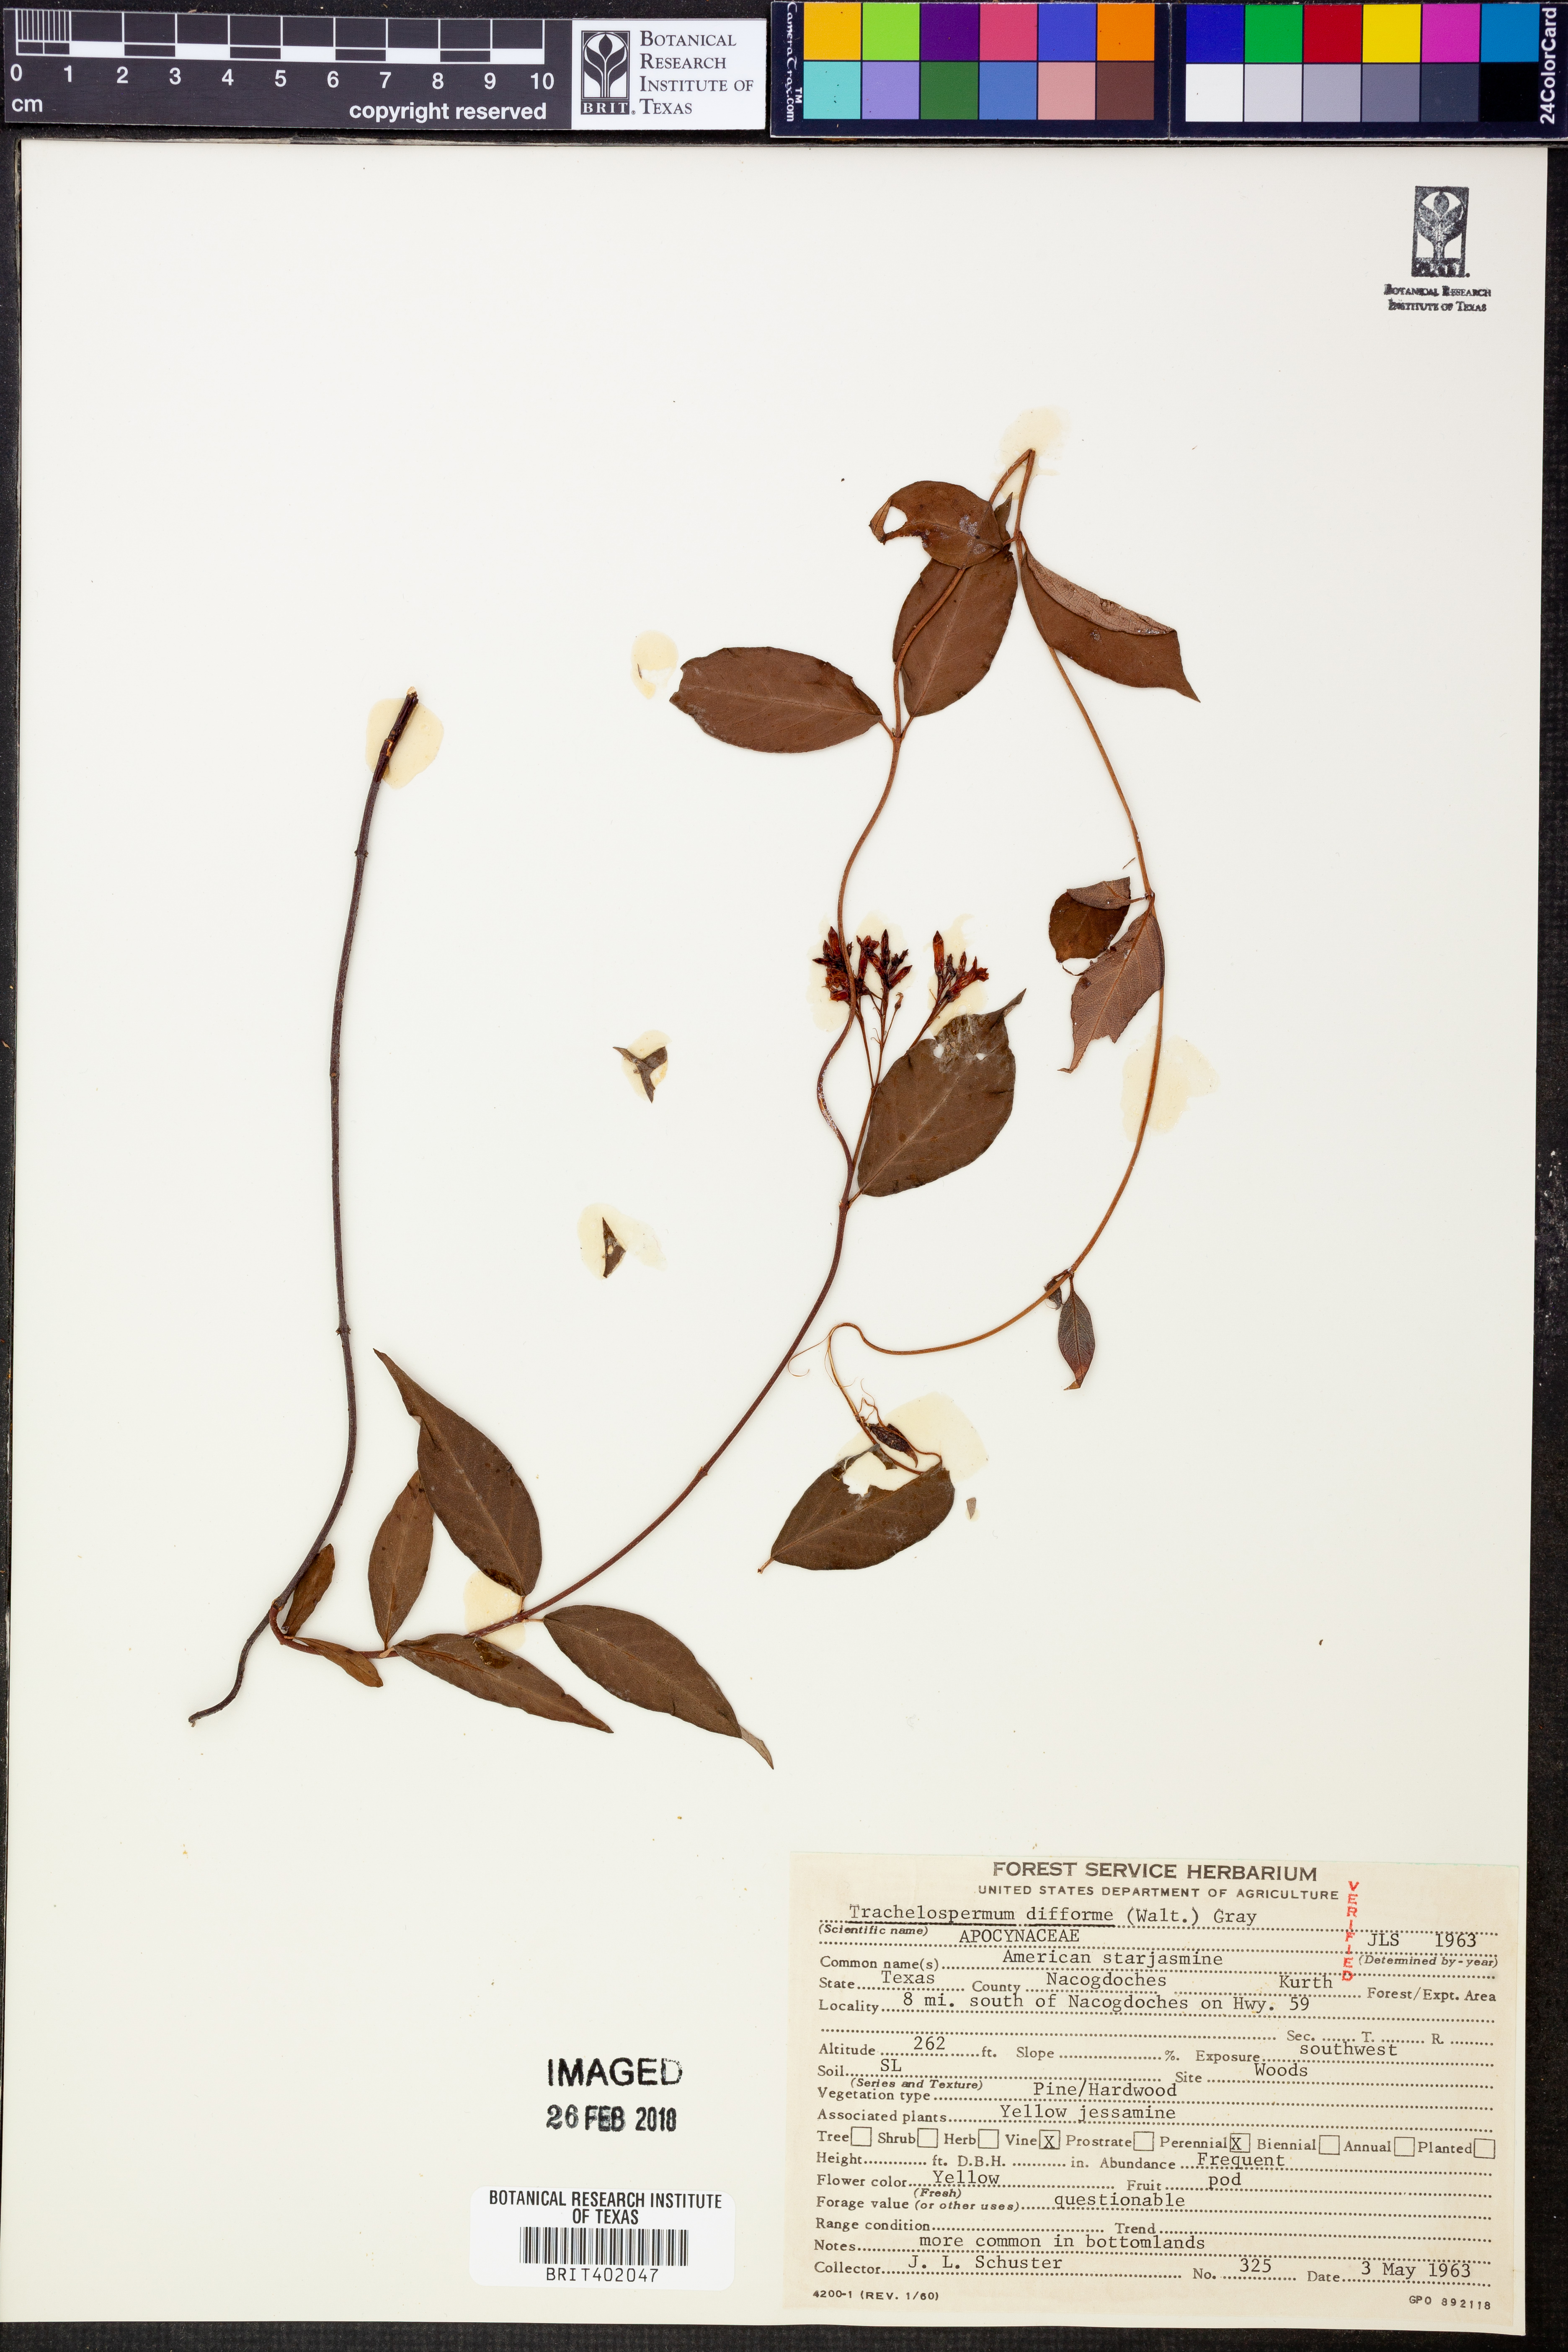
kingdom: Plantae
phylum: Tracheophyta
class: Magnoliopsida
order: Gentianales
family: Apocynaceae
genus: Thyrsanthella
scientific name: Thyrsanthella difformis
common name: Climbing dogbane
